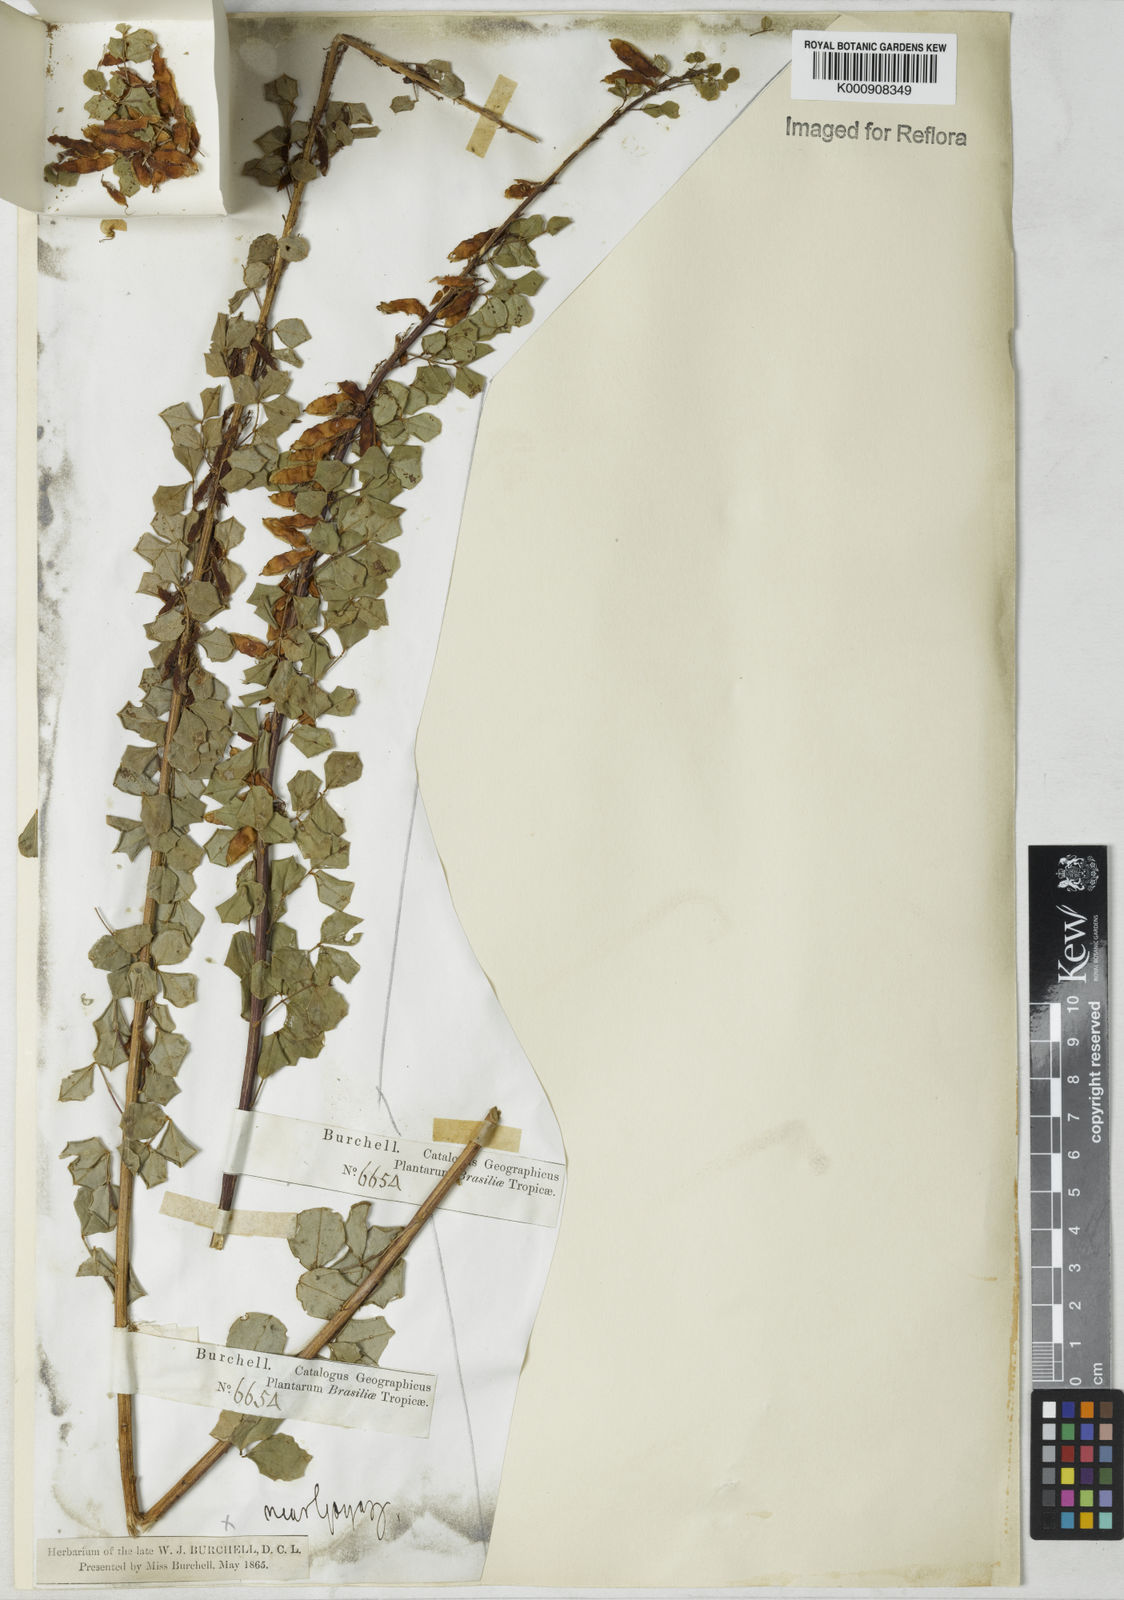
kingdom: Plantae
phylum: Tracheophyta
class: Magnoliopsida
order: Fabales
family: Fabaceae
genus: Poiretia
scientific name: Poiretia
